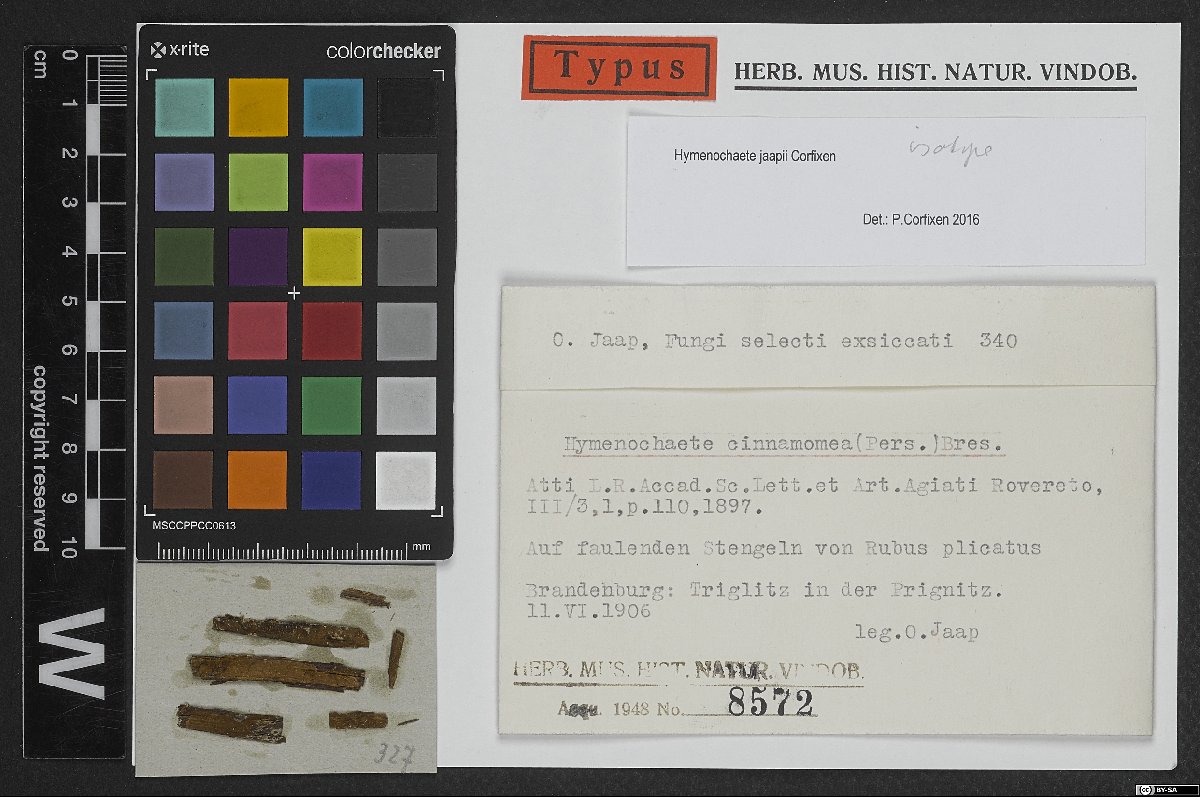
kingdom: Fungi
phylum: Basidiomycota
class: Agaricomycetes
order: Hymenochaetales
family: Hymenochaetaceae
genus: Hymenochaete
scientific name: Hymenochaete jaapii
